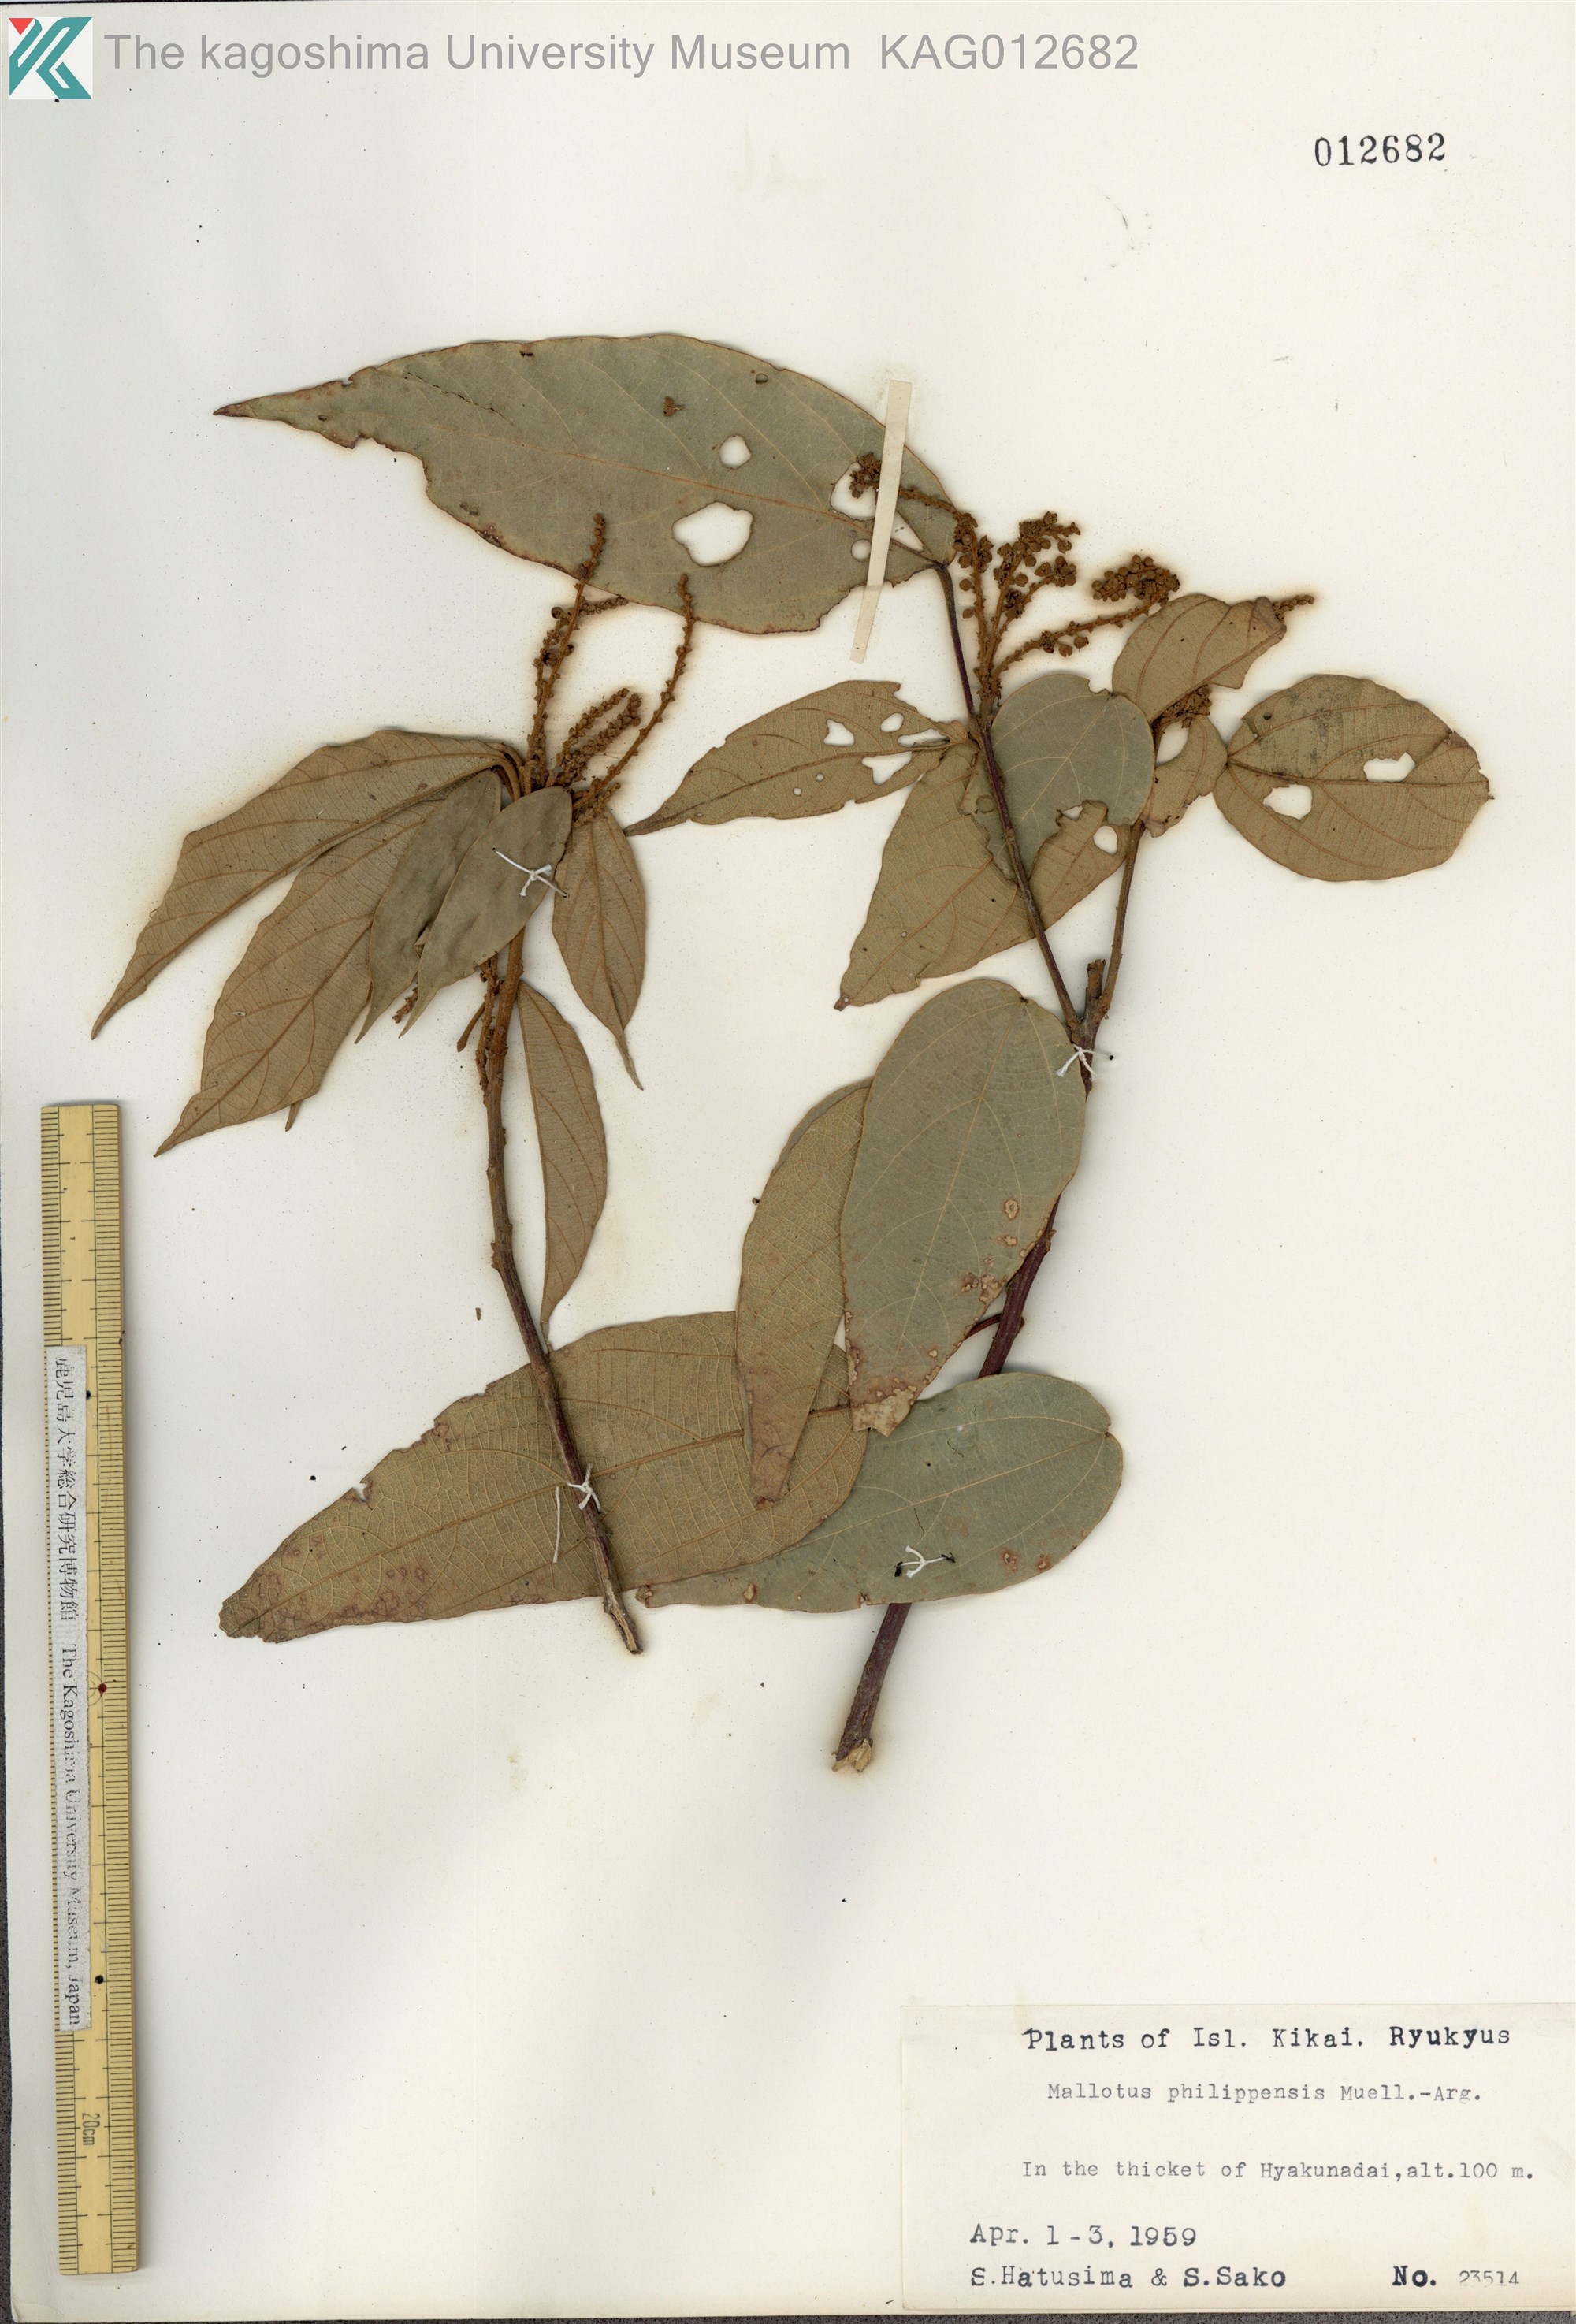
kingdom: Plantae
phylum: Tracheophyta
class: Magnoliopsida
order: Malpighiales
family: Euphorbiaceae
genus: Mallotus
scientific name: Mallotus philippensis
